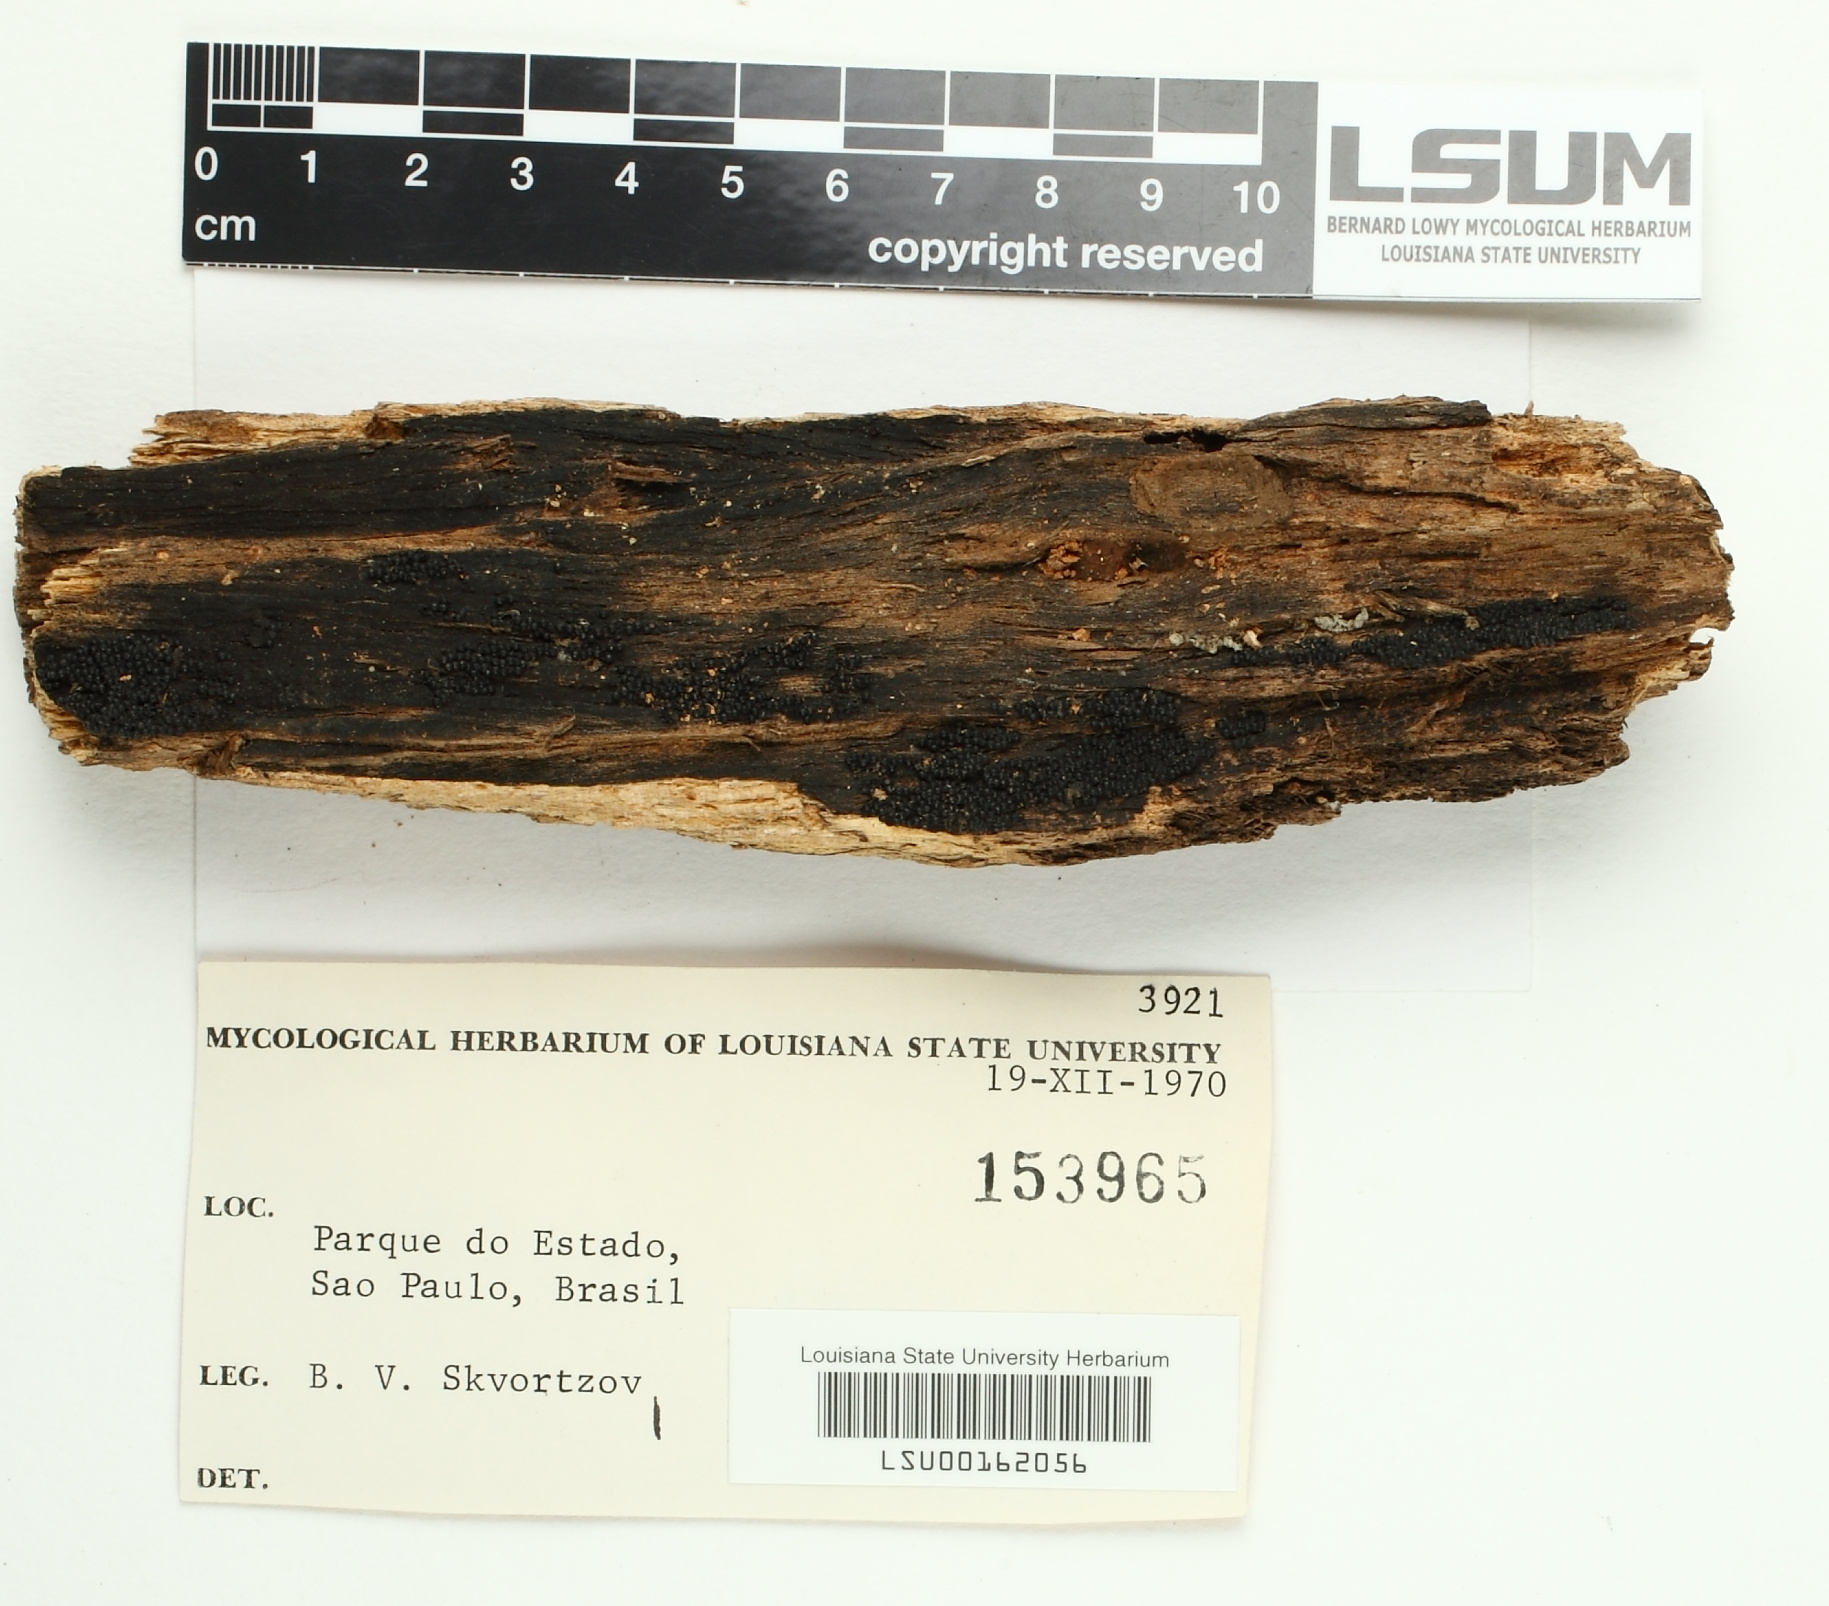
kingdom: Fungi
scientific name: Fungi
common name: Fungi
